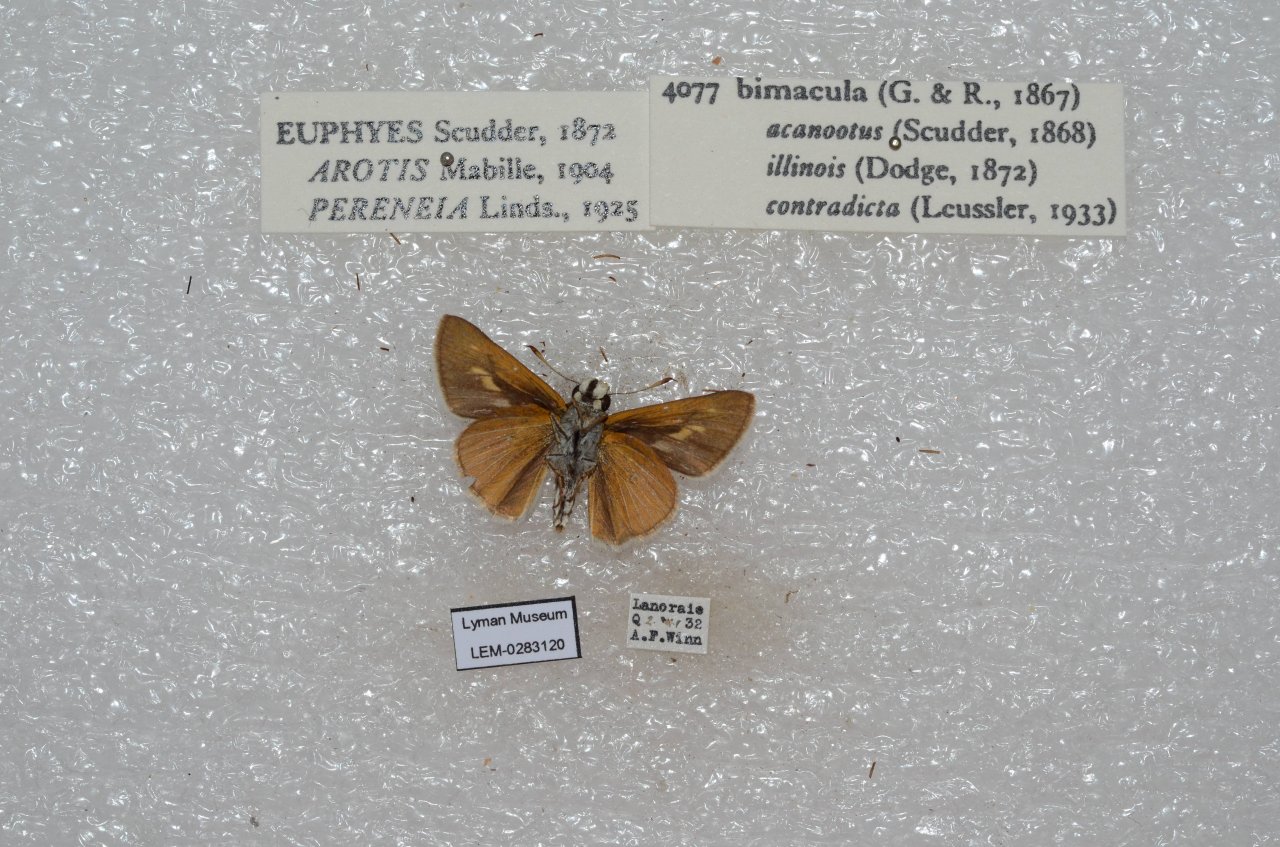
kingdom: Animalia
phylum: Arthropoda
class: Insecta
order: Lepidoptera
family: Hesperiidae
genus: Euphyes
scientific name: Euphyes bimacula
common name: Two-spotted Skipper
